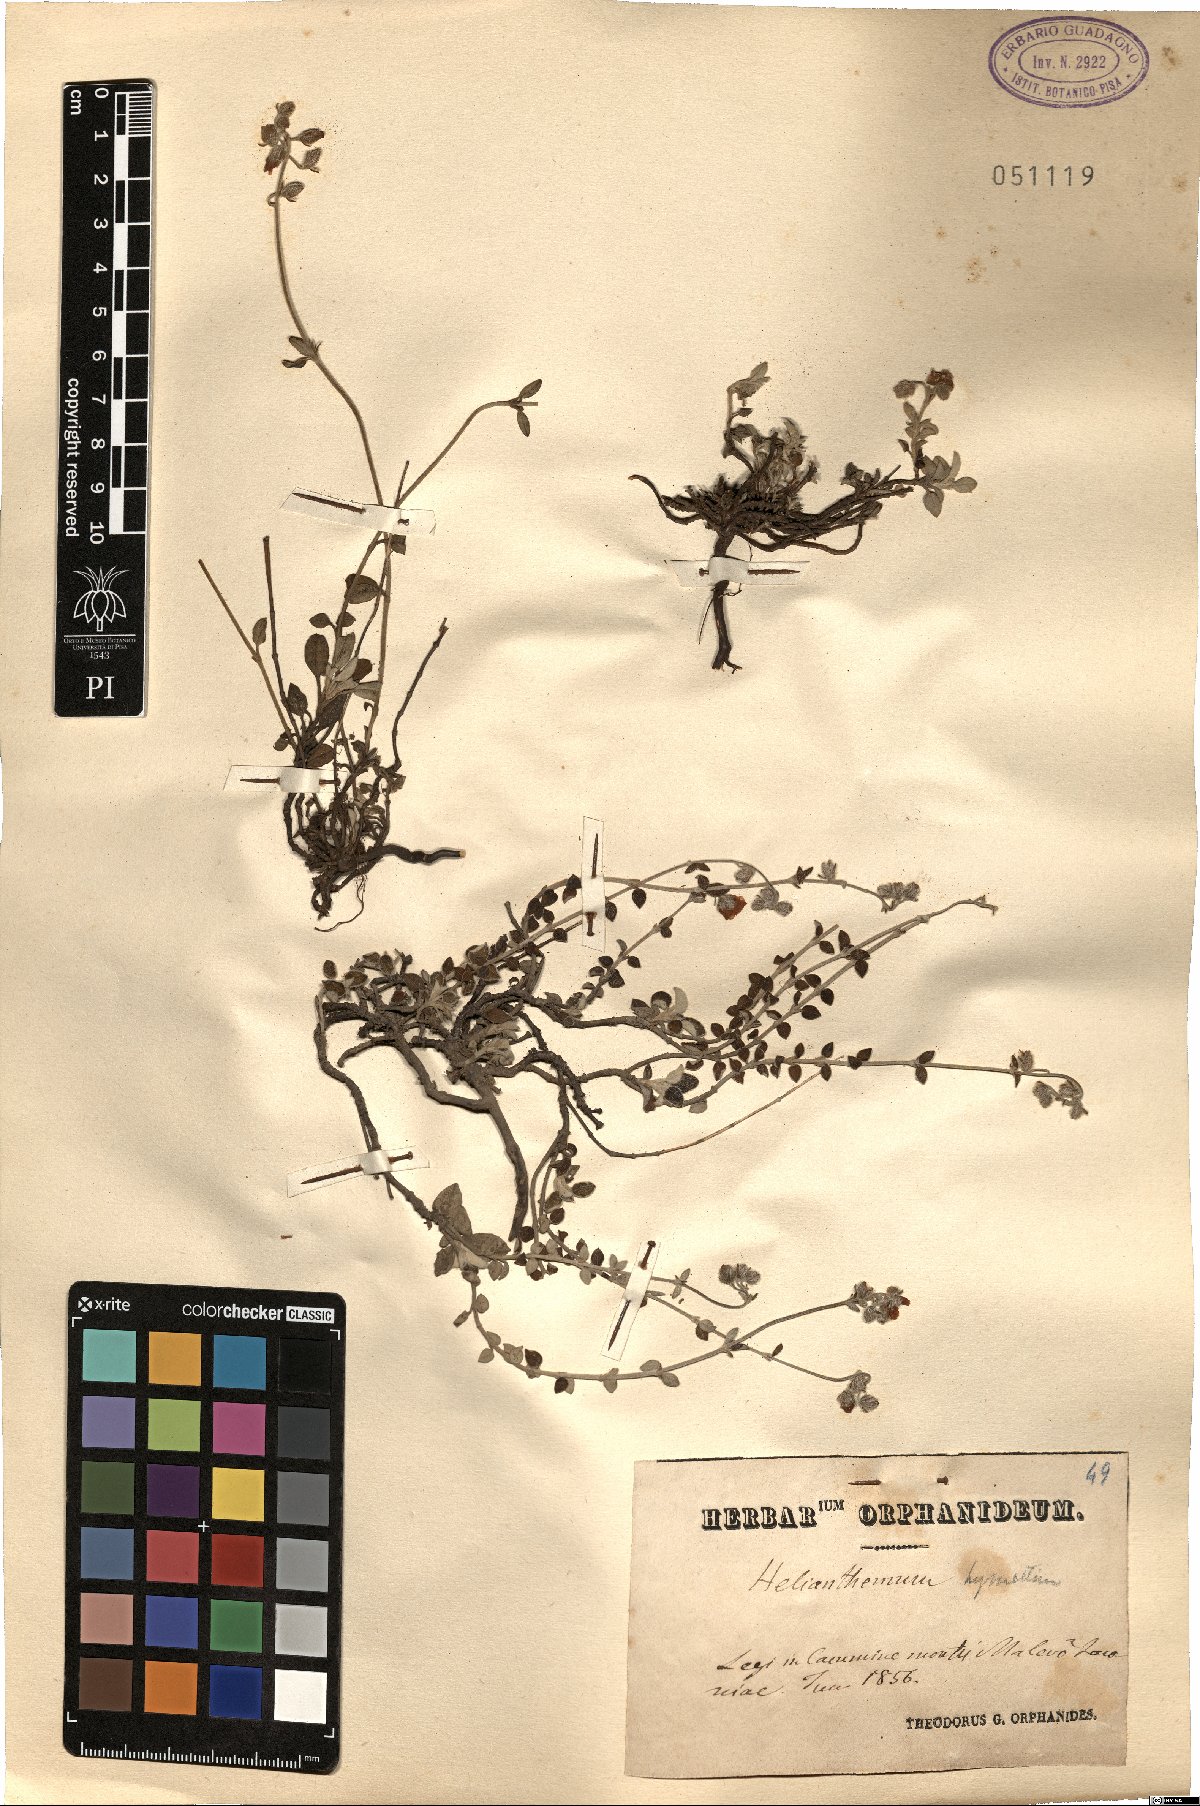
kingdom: Plantae
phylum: Tracheophyta
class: Magnoliopsida
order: Malvales
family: Cistaceae
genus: Helianthemum
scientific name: Helianthemum hymettium
